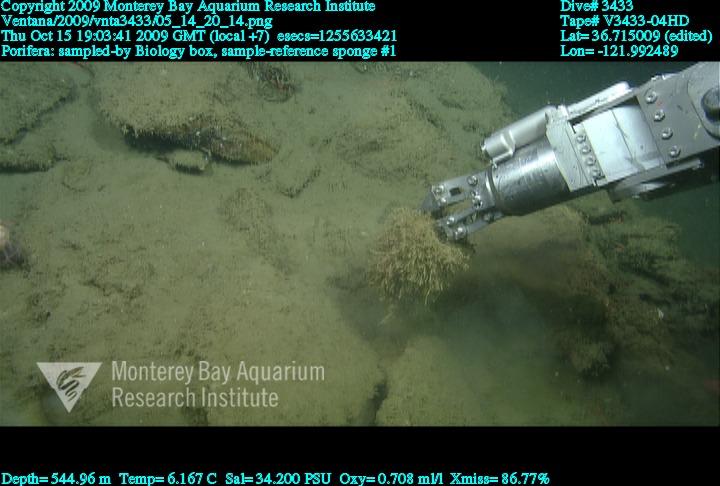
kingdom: Animalia
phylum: Porifera
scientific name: Porifera
